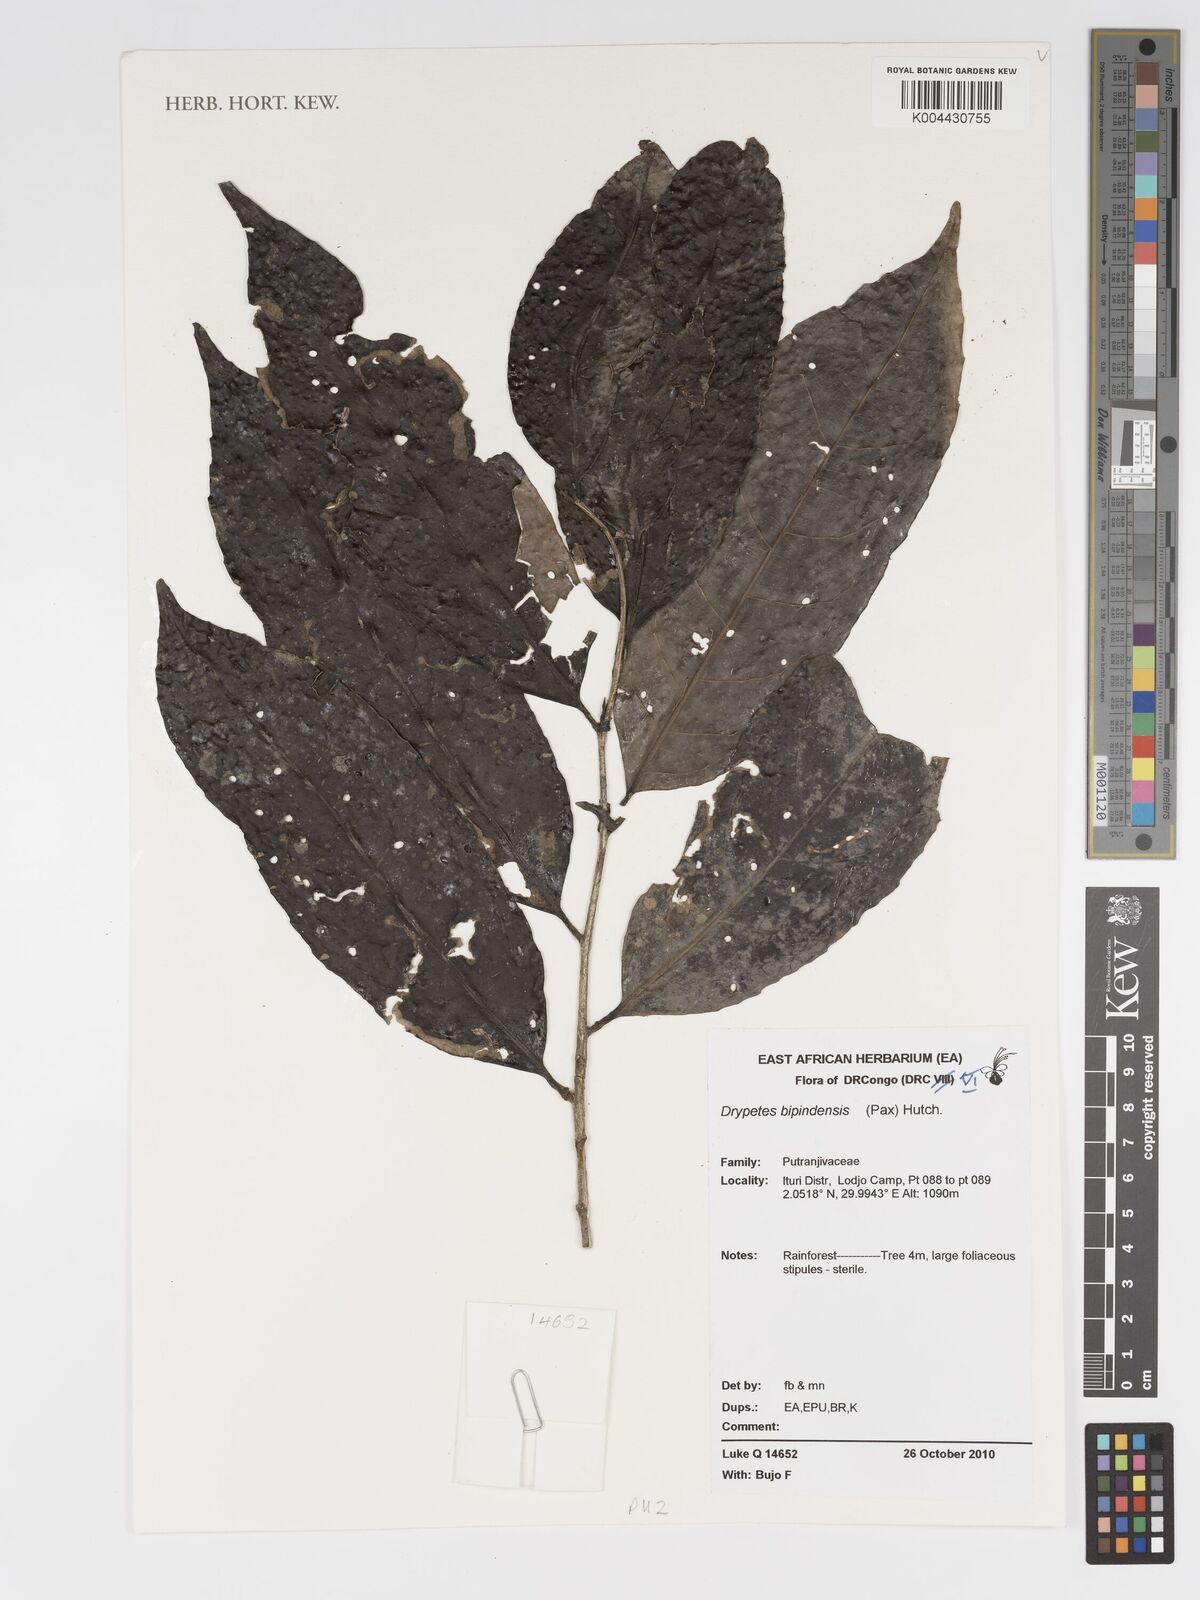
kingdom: Plantae
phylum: Tracheophyta
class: Magnoliopsida
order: Malpighiales
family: Putranjivaceae
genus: Drypetes
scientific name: Drypetes bipindensis
